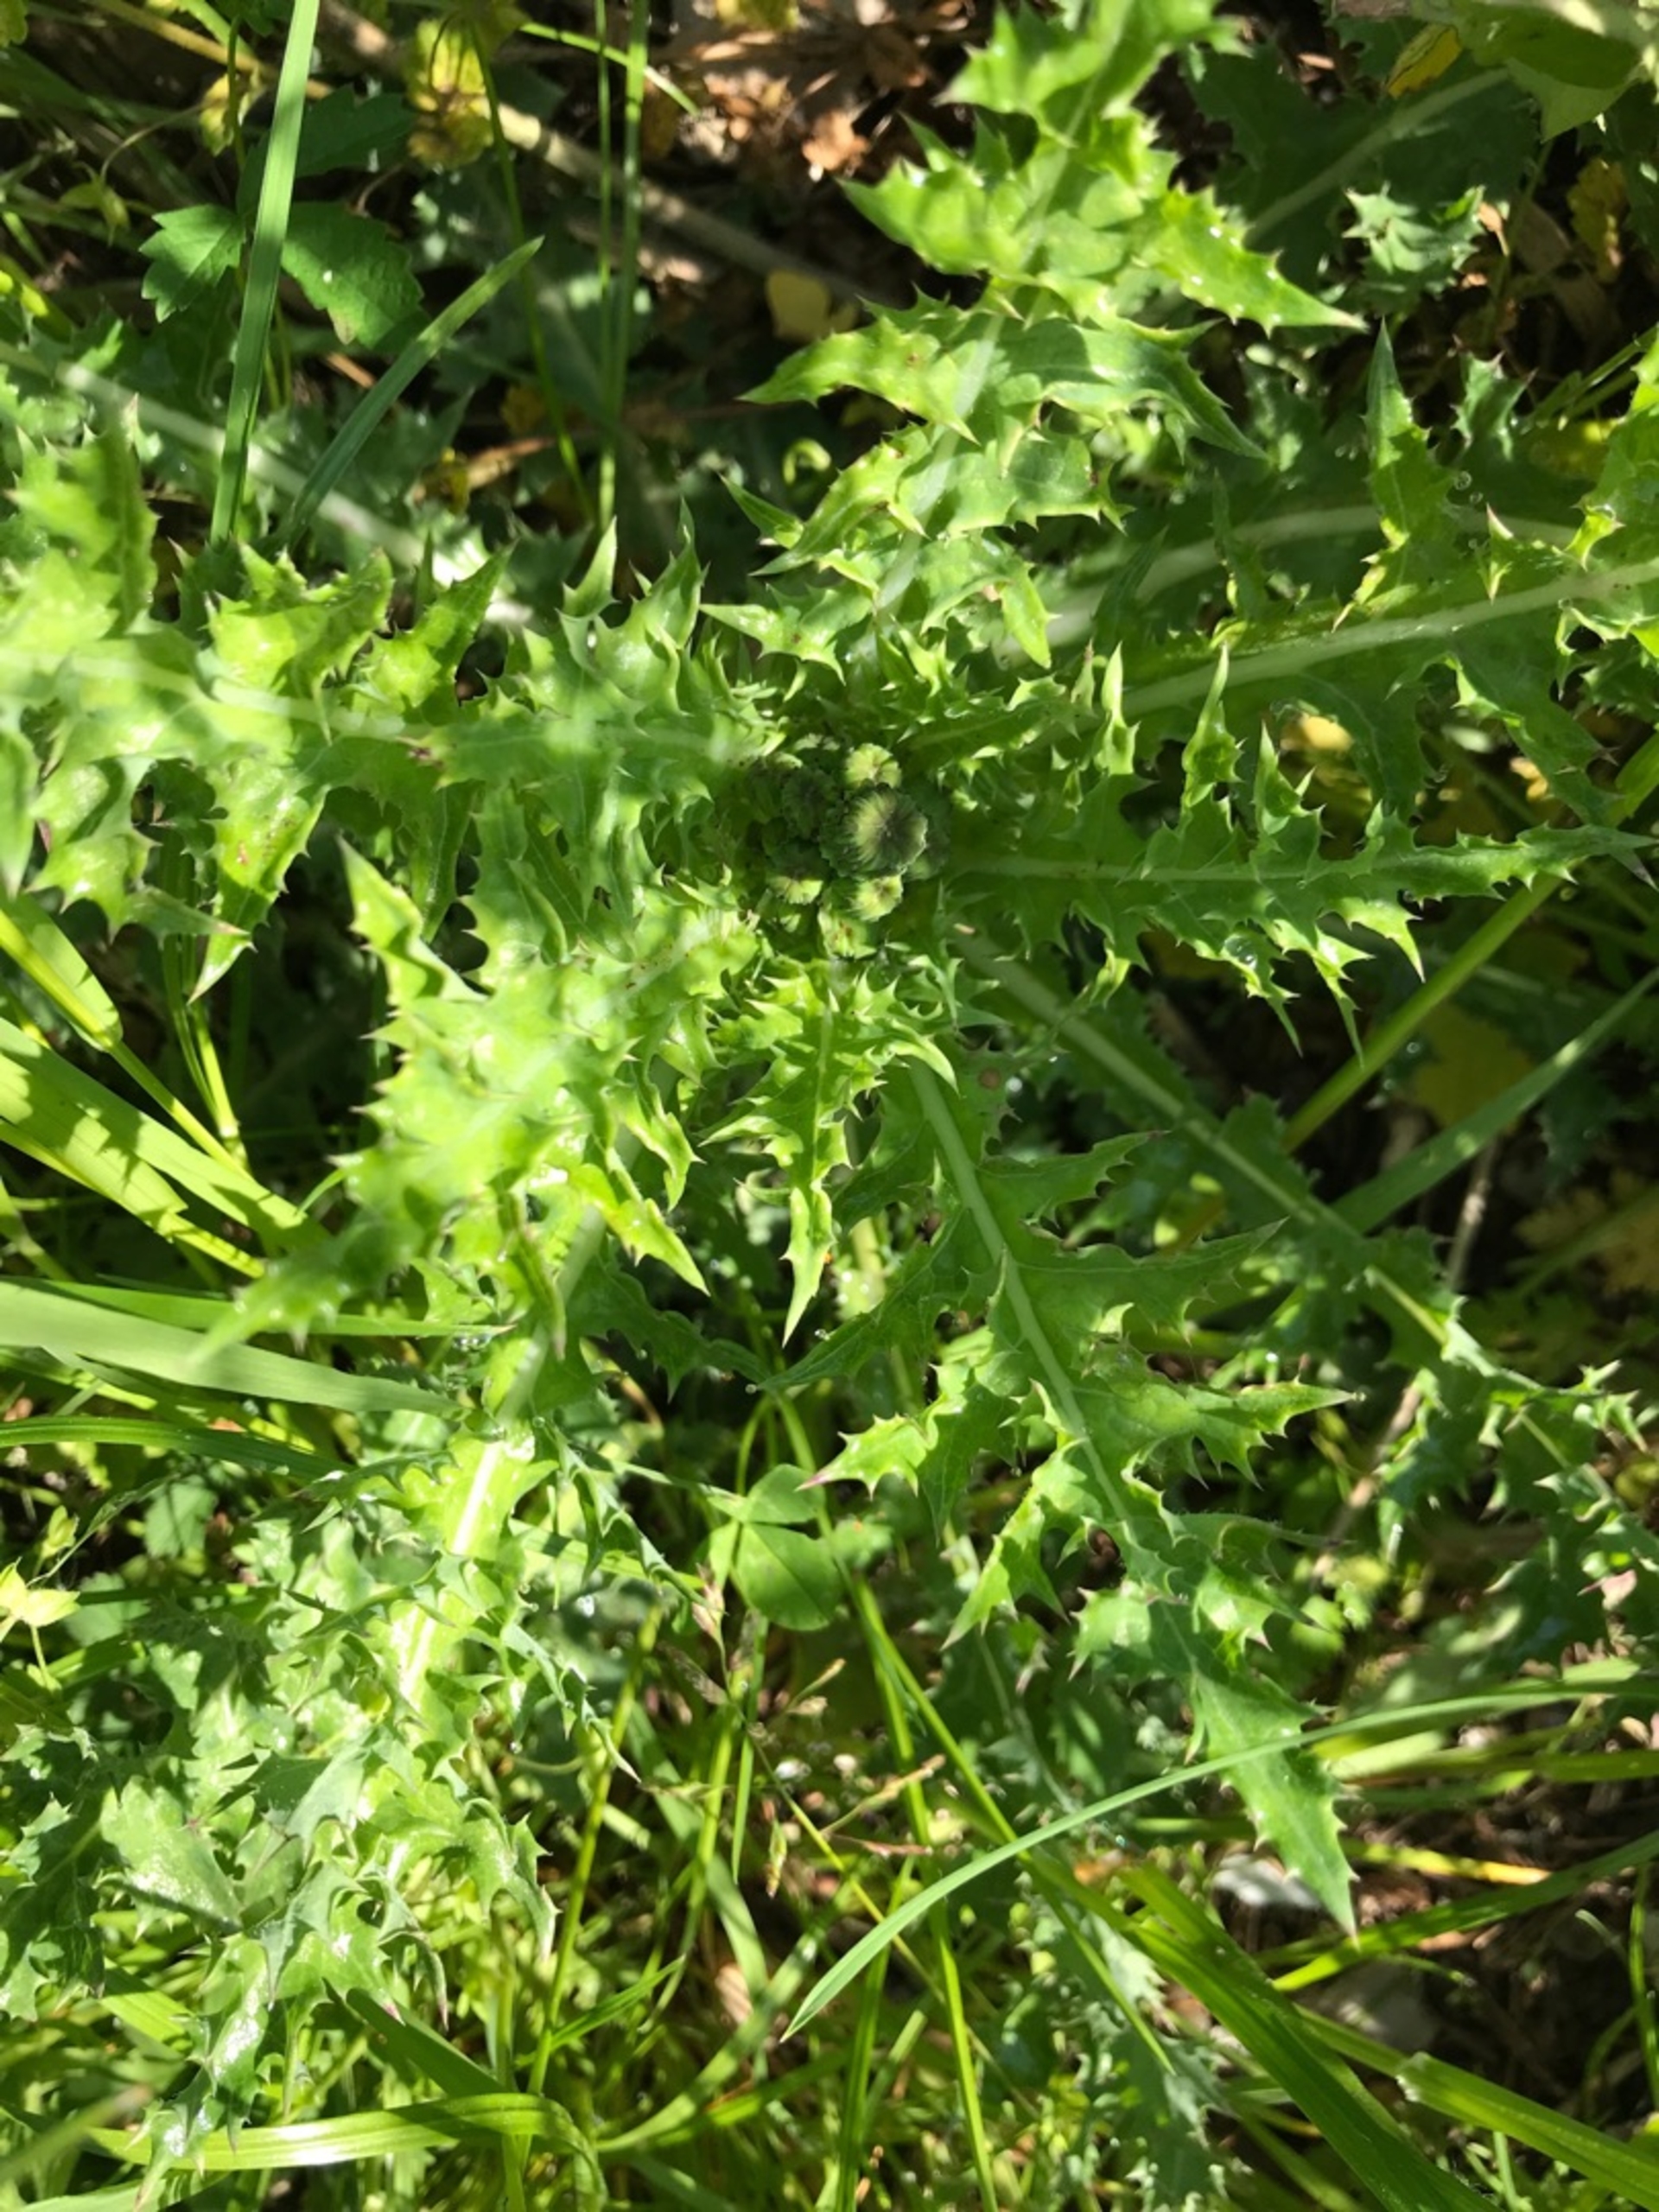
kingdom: Plantae
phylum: Tracheophyta
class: Magnoliopsida
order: Asterales
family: Asteraceae
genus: Sonchus
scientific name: Sonchus asper
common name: Ru svinemælk
